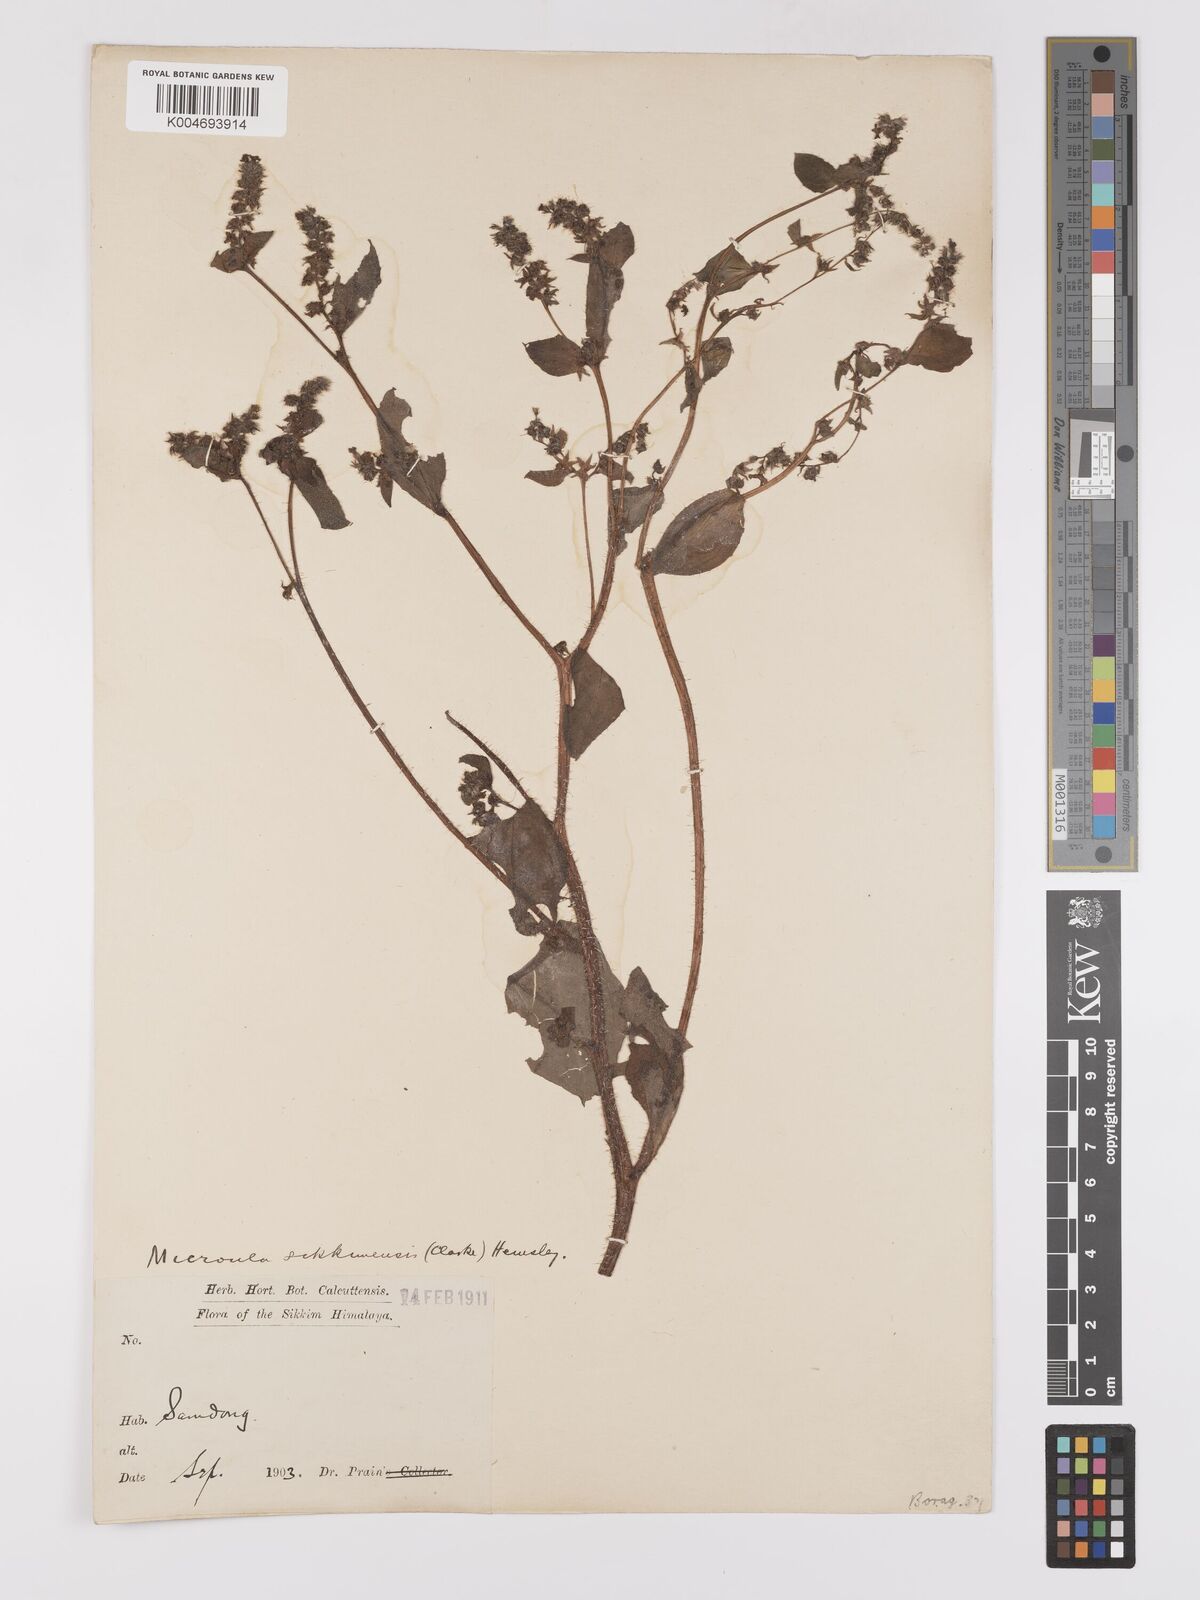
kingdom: Plantae
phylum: Tracheophyta
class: Magnoliopsida
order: Boraginales
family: Boraginaceae
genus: Microula
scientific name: Microula sikkimensis
